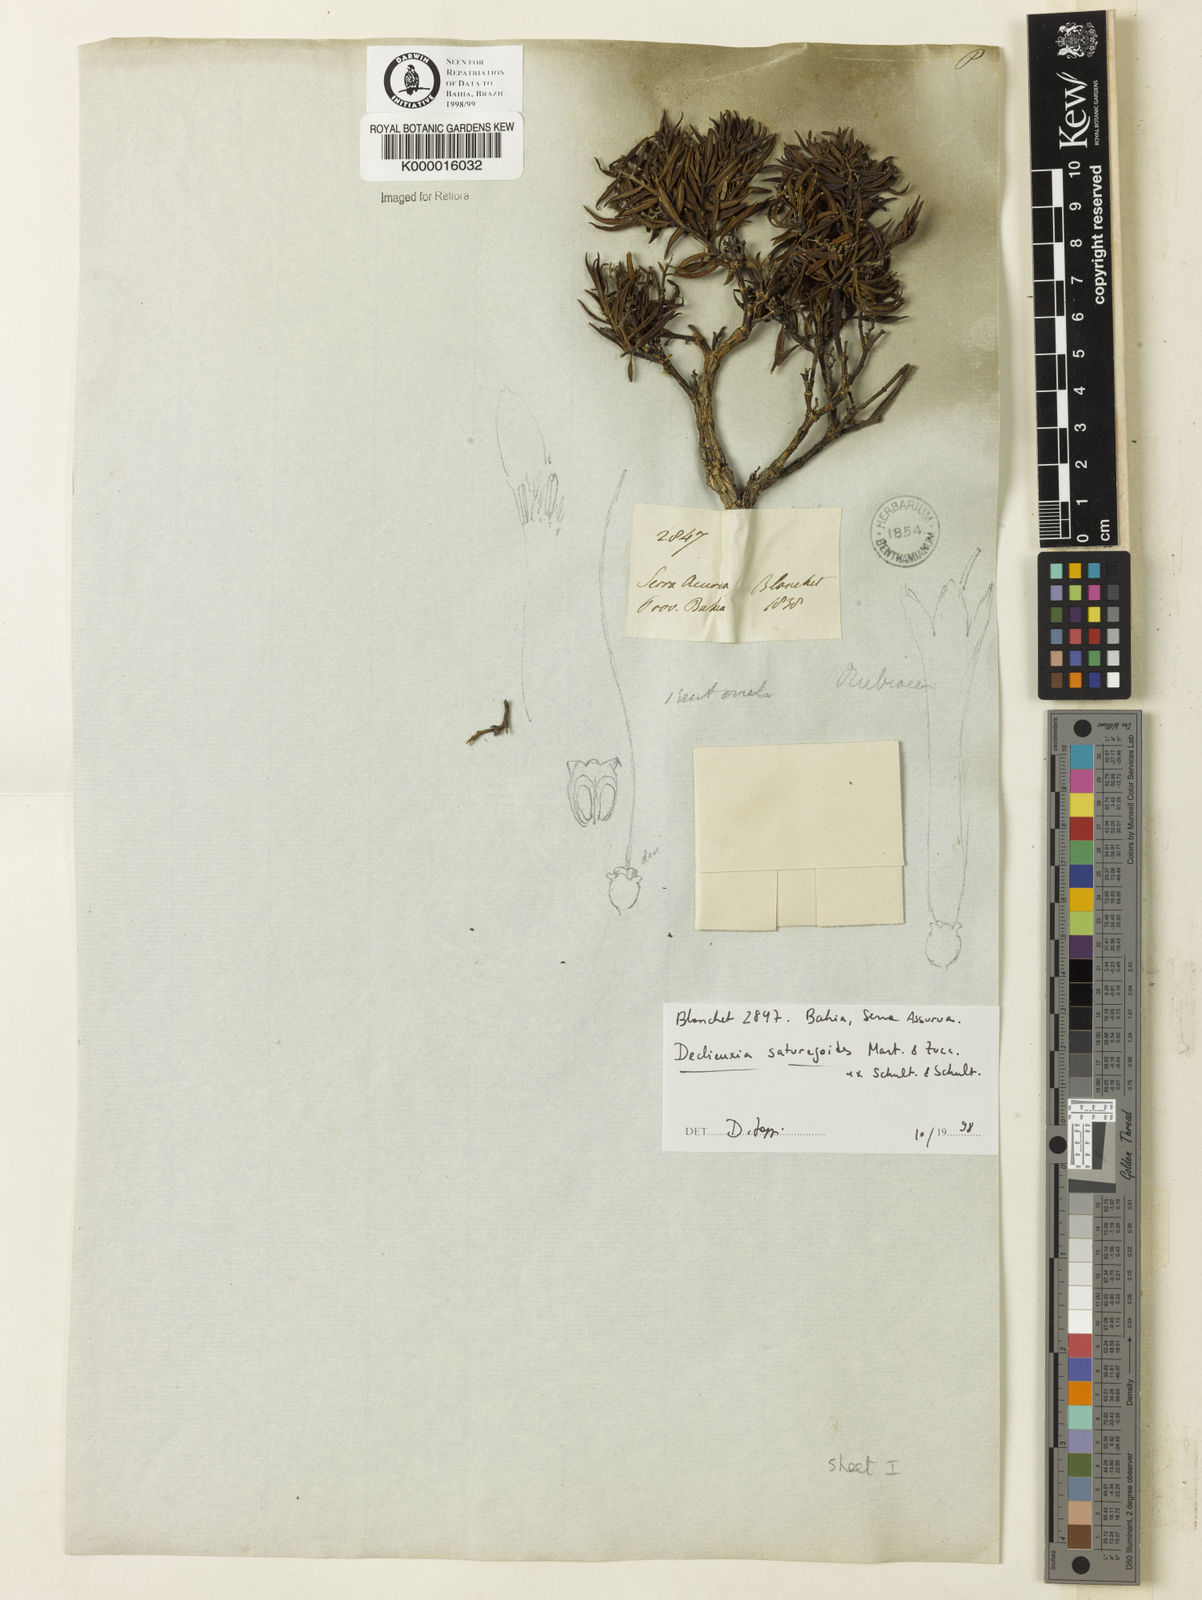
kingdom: Plantae
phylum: Tracheophyta
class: Magnoliopsida
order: Gentianales
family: Rubiaceae
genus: Declieuxia
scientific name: Declieuxia
